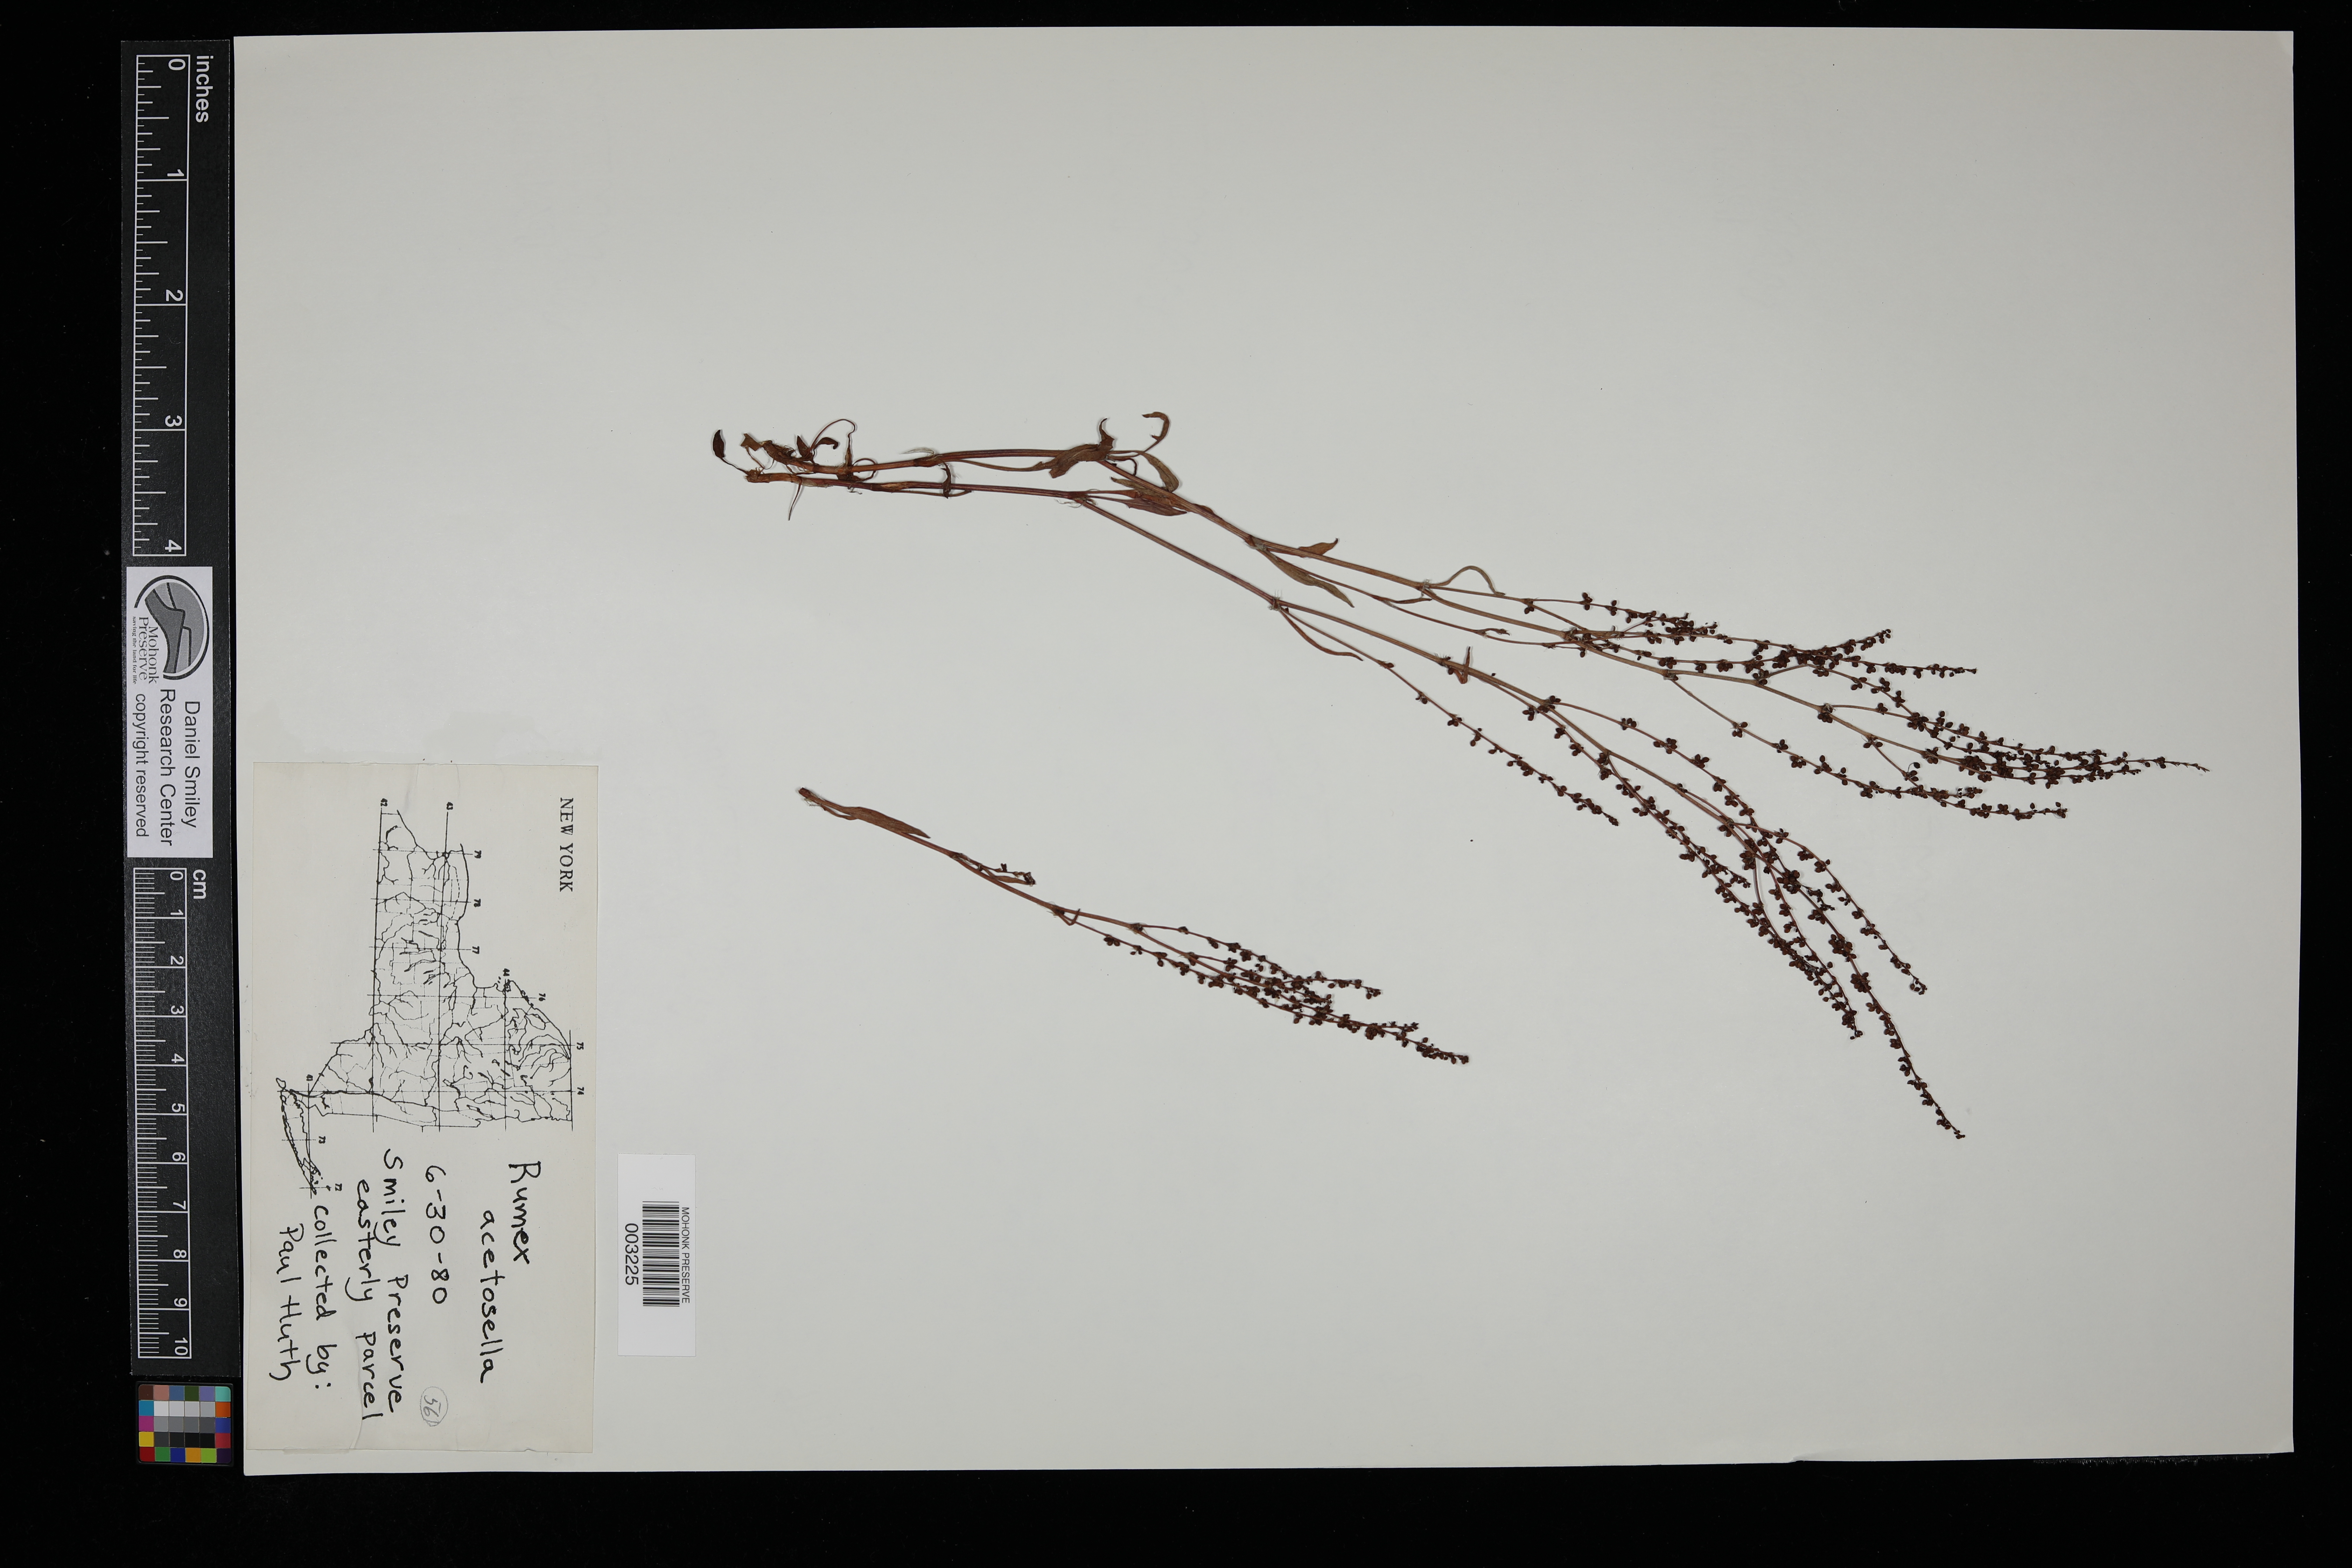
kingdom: Plantae
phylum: Tracheophyta
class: Magnoliopsida
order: Caryophyllales
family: Polygonaceae
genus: Rumex
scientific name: Rumex acetosella
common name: Common sheep sorrel
